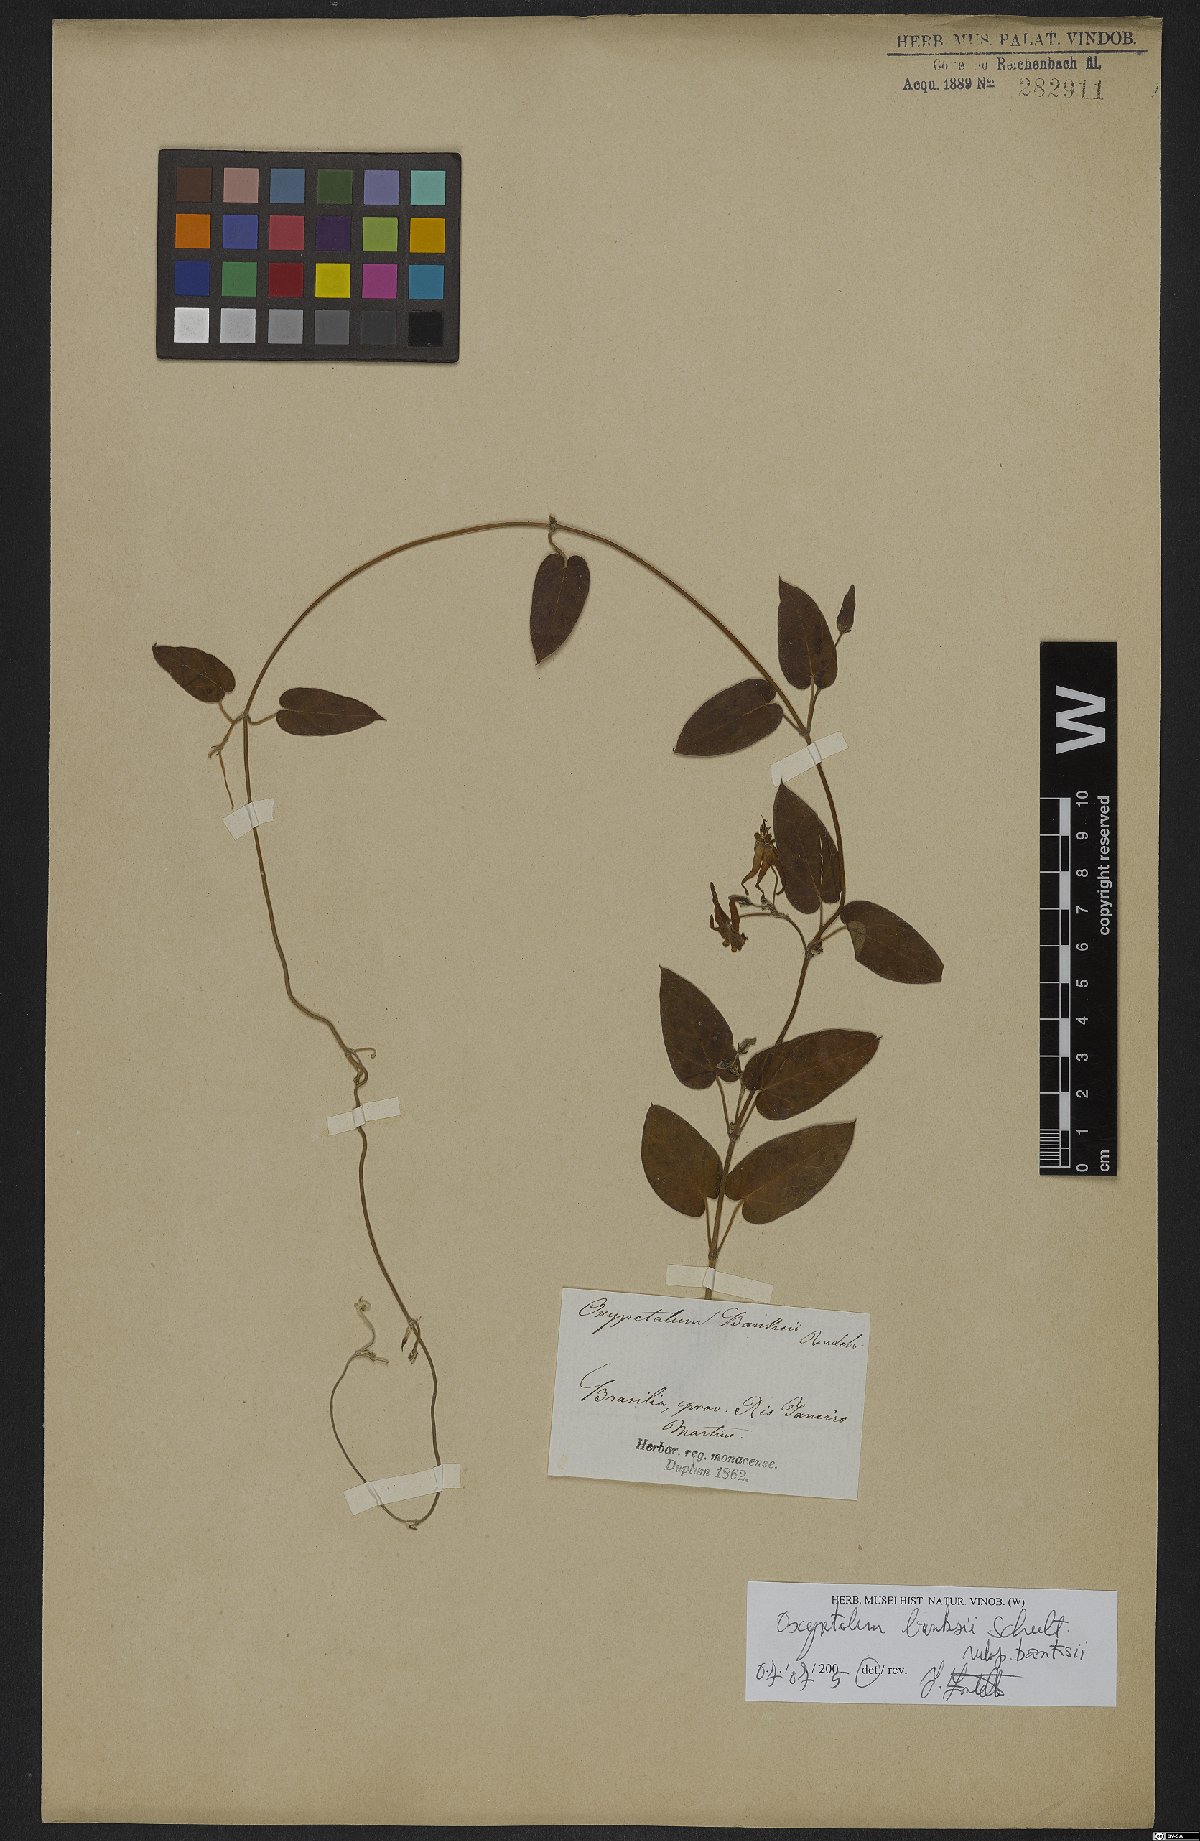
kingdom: Plantae
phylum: Tracheophyta
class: Magnoliopsida
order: Gentianales
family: Apocynaceae
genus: Oxypetalum
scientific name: Oxypetalum banksii
